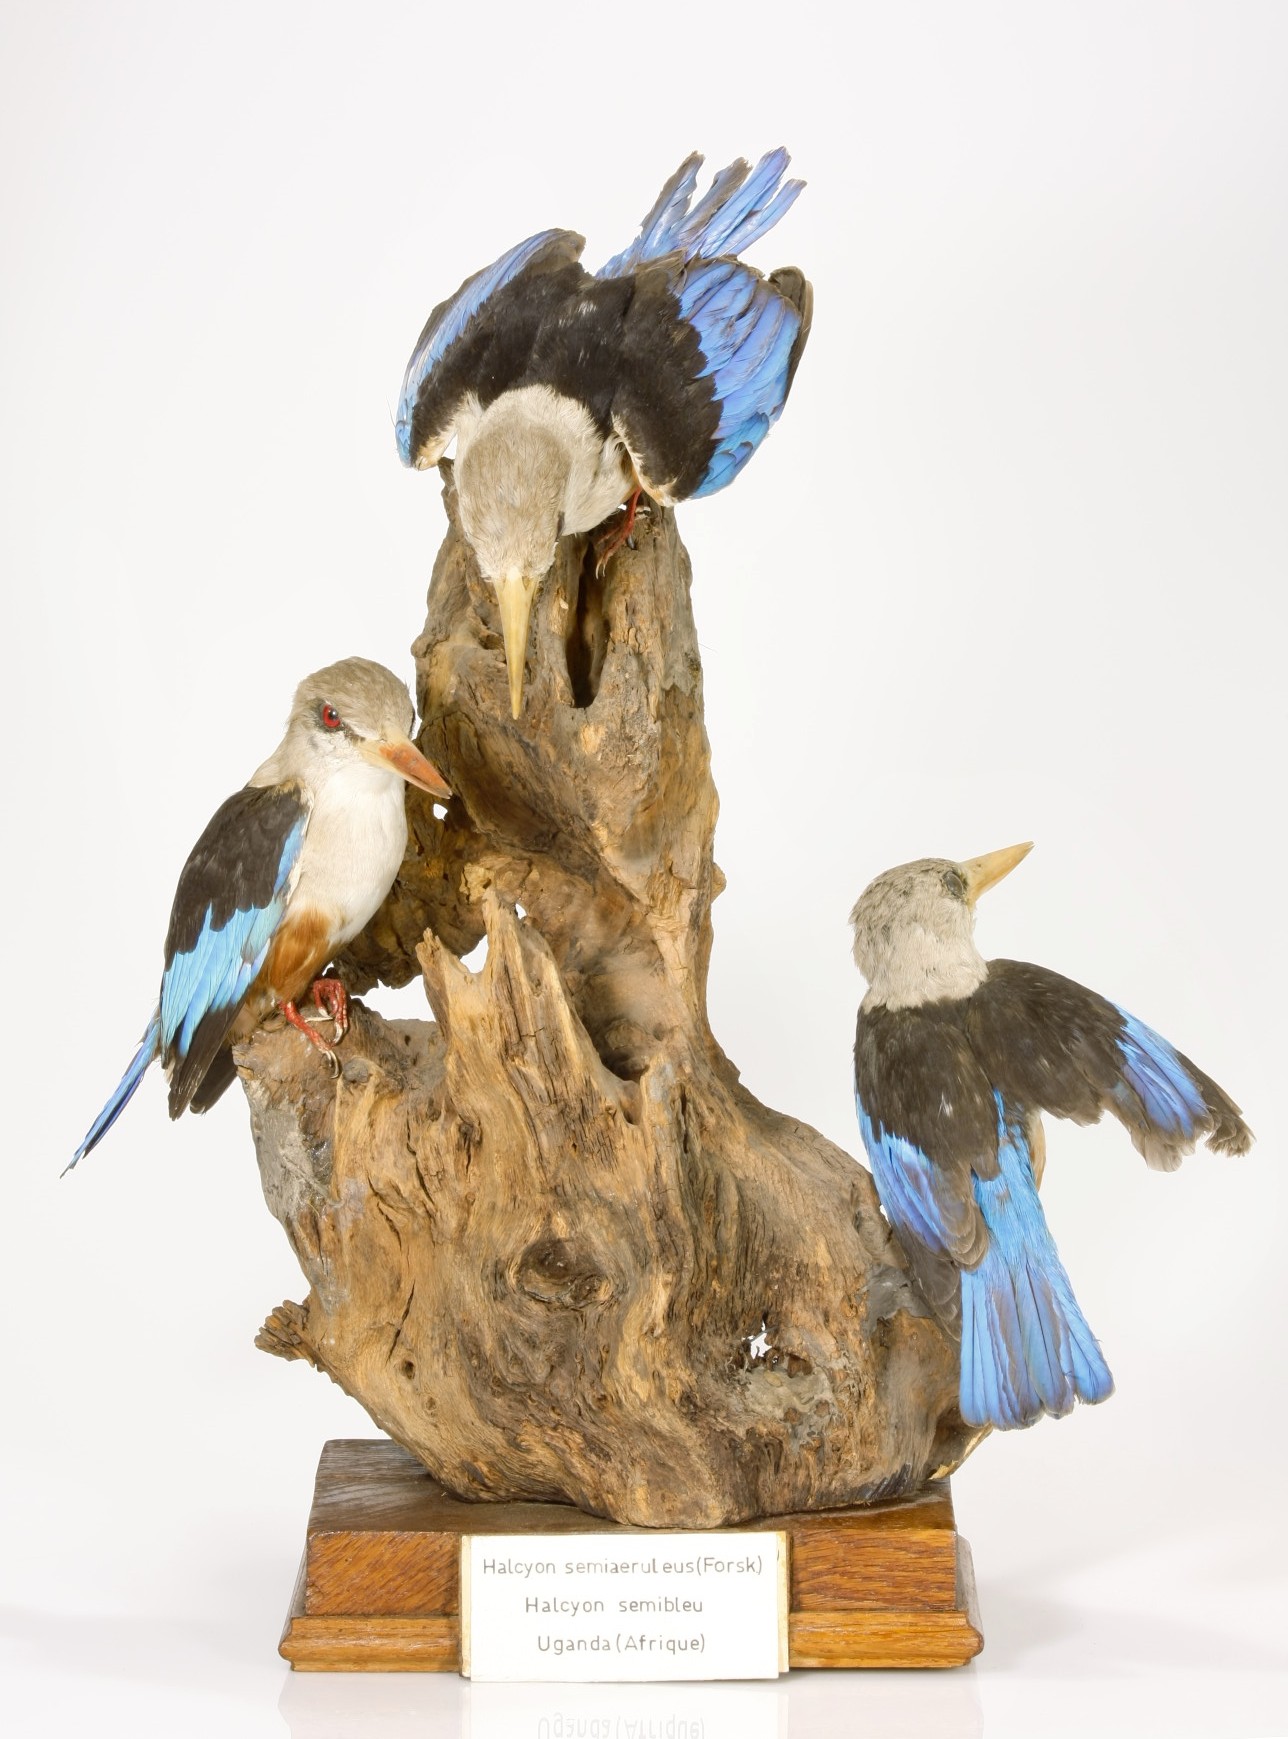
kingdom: Animalia
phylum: Chordata
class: Aves
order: Coraciiformes
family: Alcedinidae
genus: Halcyon
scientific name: Halcyon leucocephala
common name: Grey-headed kingfisher
